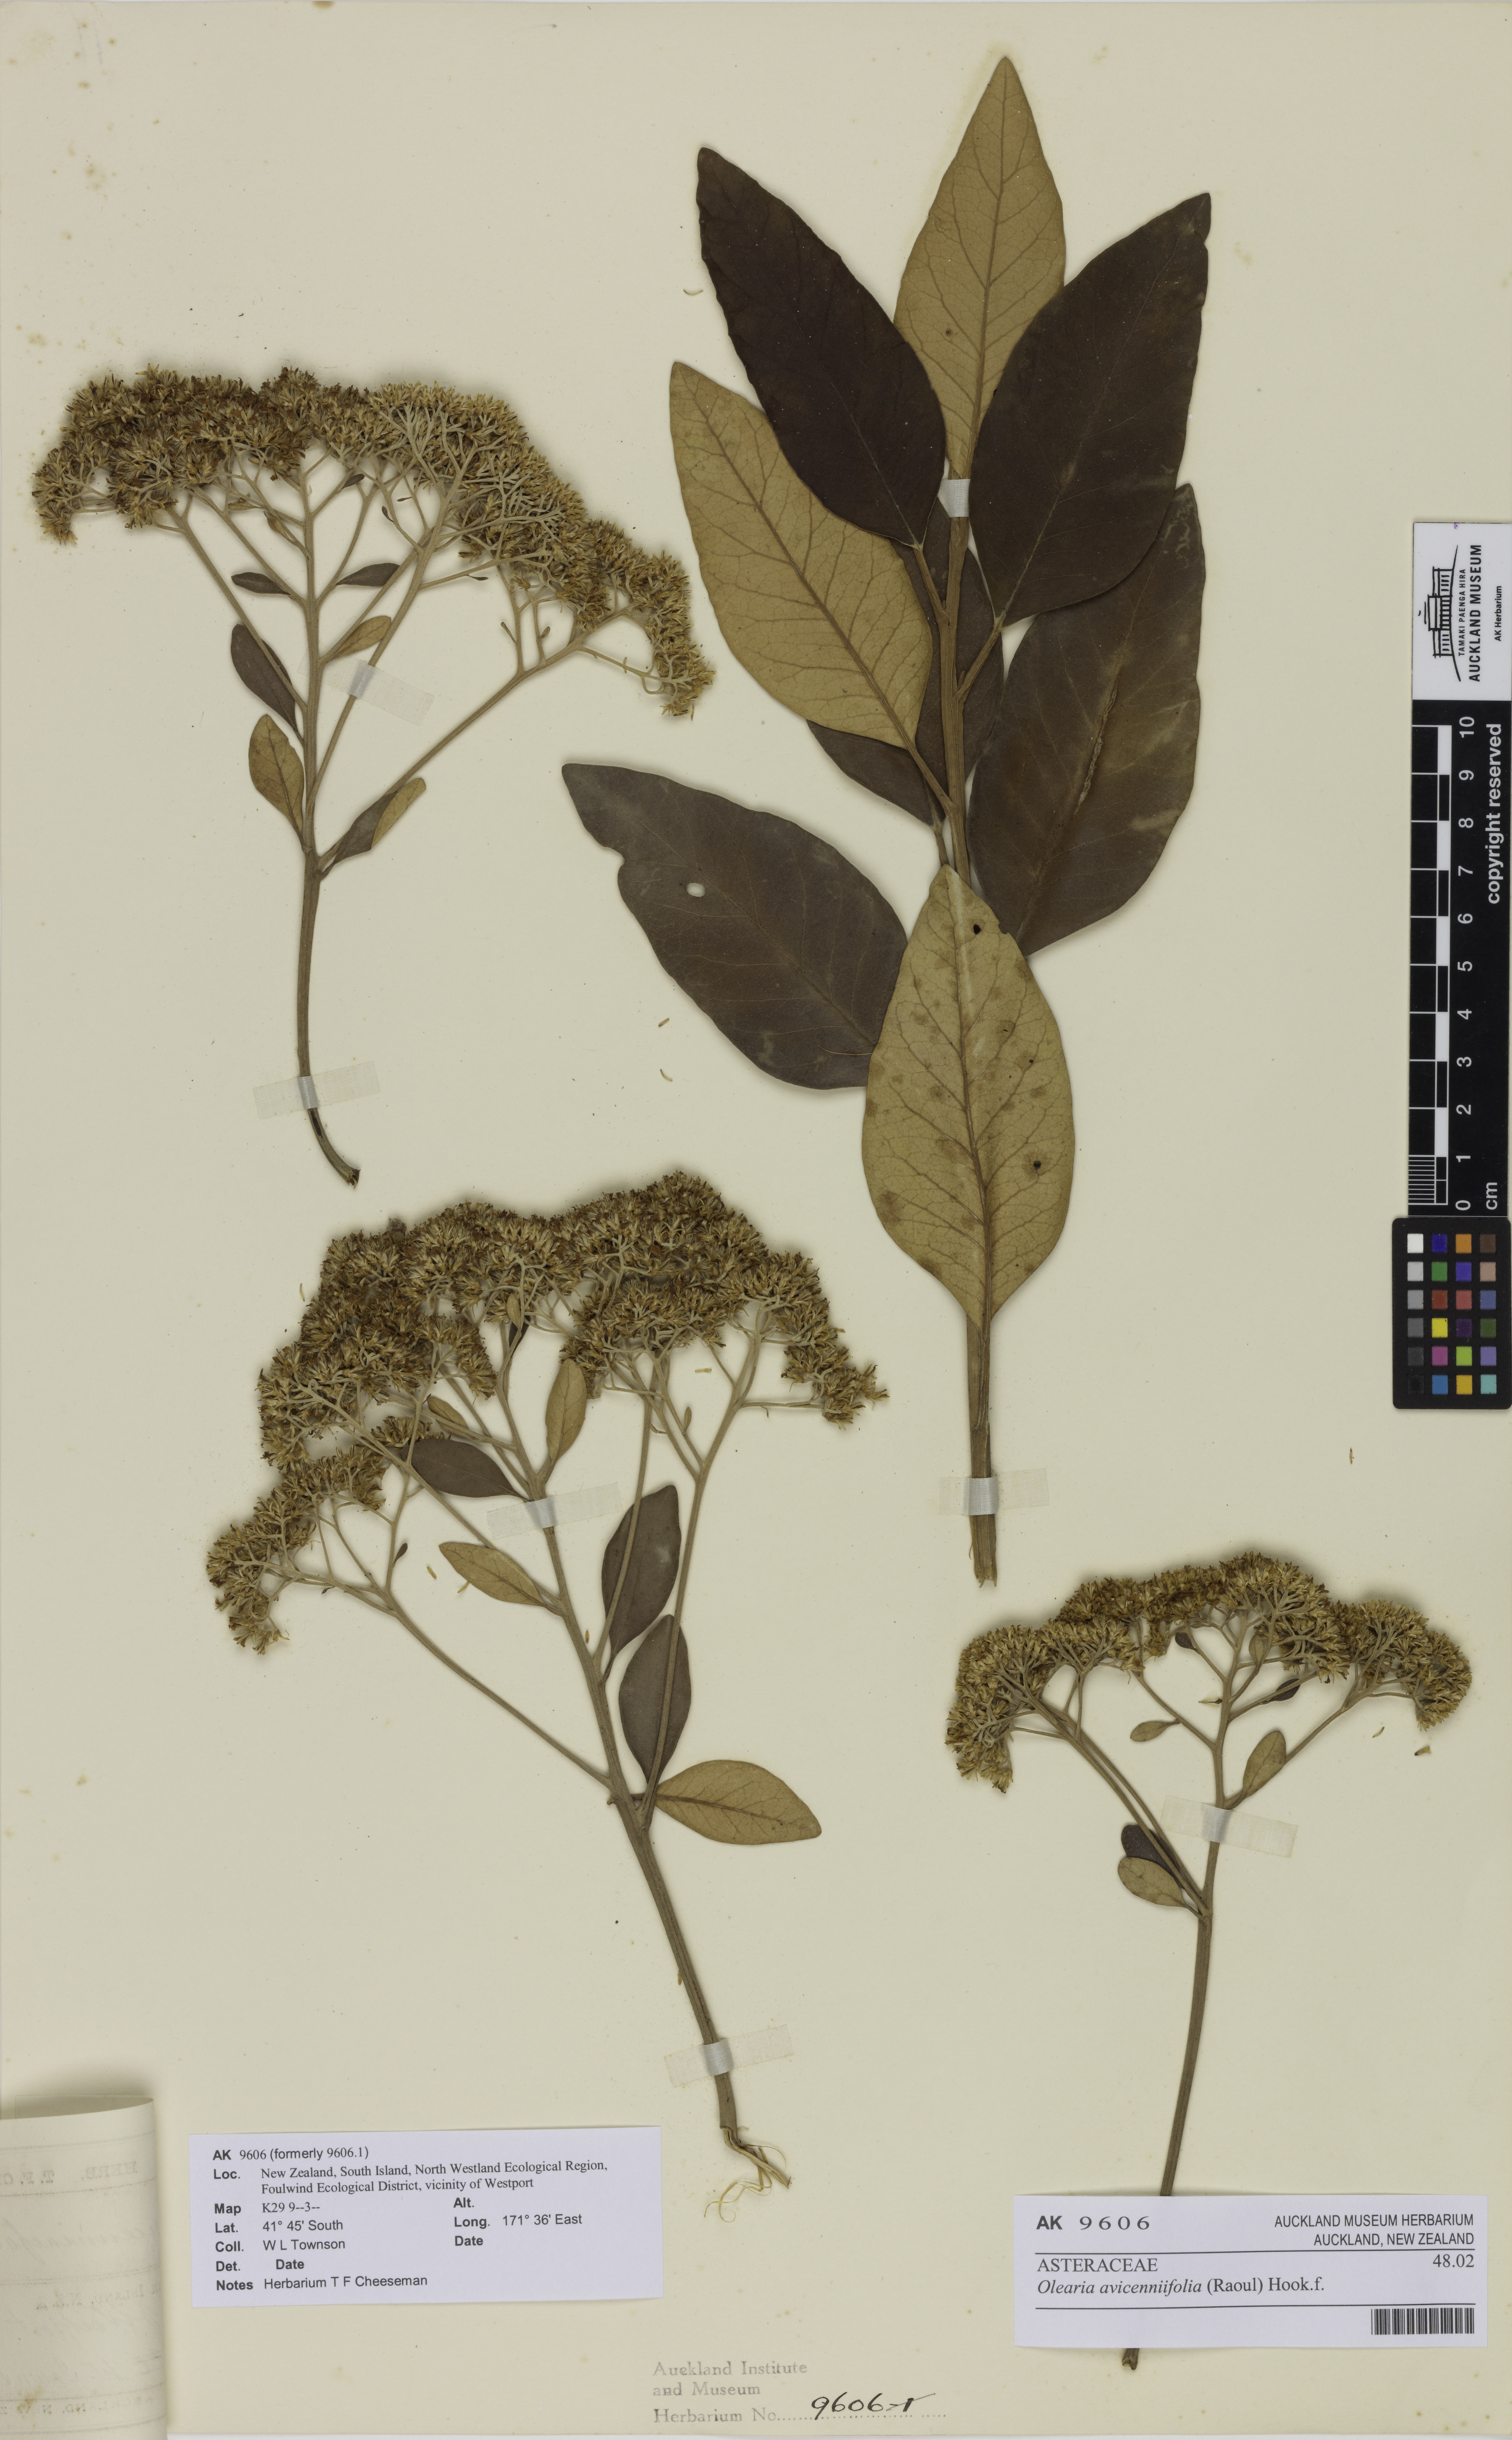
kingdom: Plantae
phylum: Tracheophyta
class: Magnoliopsida
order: Asterales
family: Asteraceae
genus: Olearia
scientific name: Olearia avicenniifolia
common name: Mangrove-leaf daisybush
